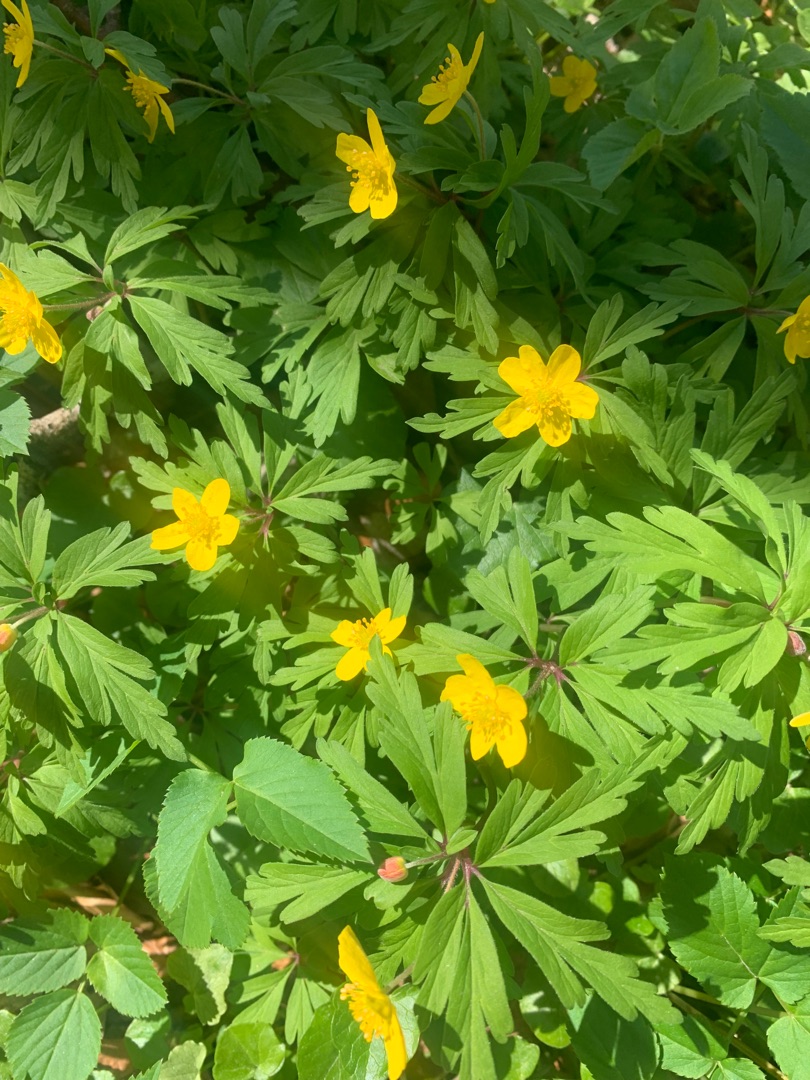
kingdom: Plantae
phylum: Tracheophyta
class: Magnoliopsida
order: Ranunculales
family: Ranunculaceae
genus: Anemone
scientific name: Anemone ranunculoides
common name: Gul anemone
